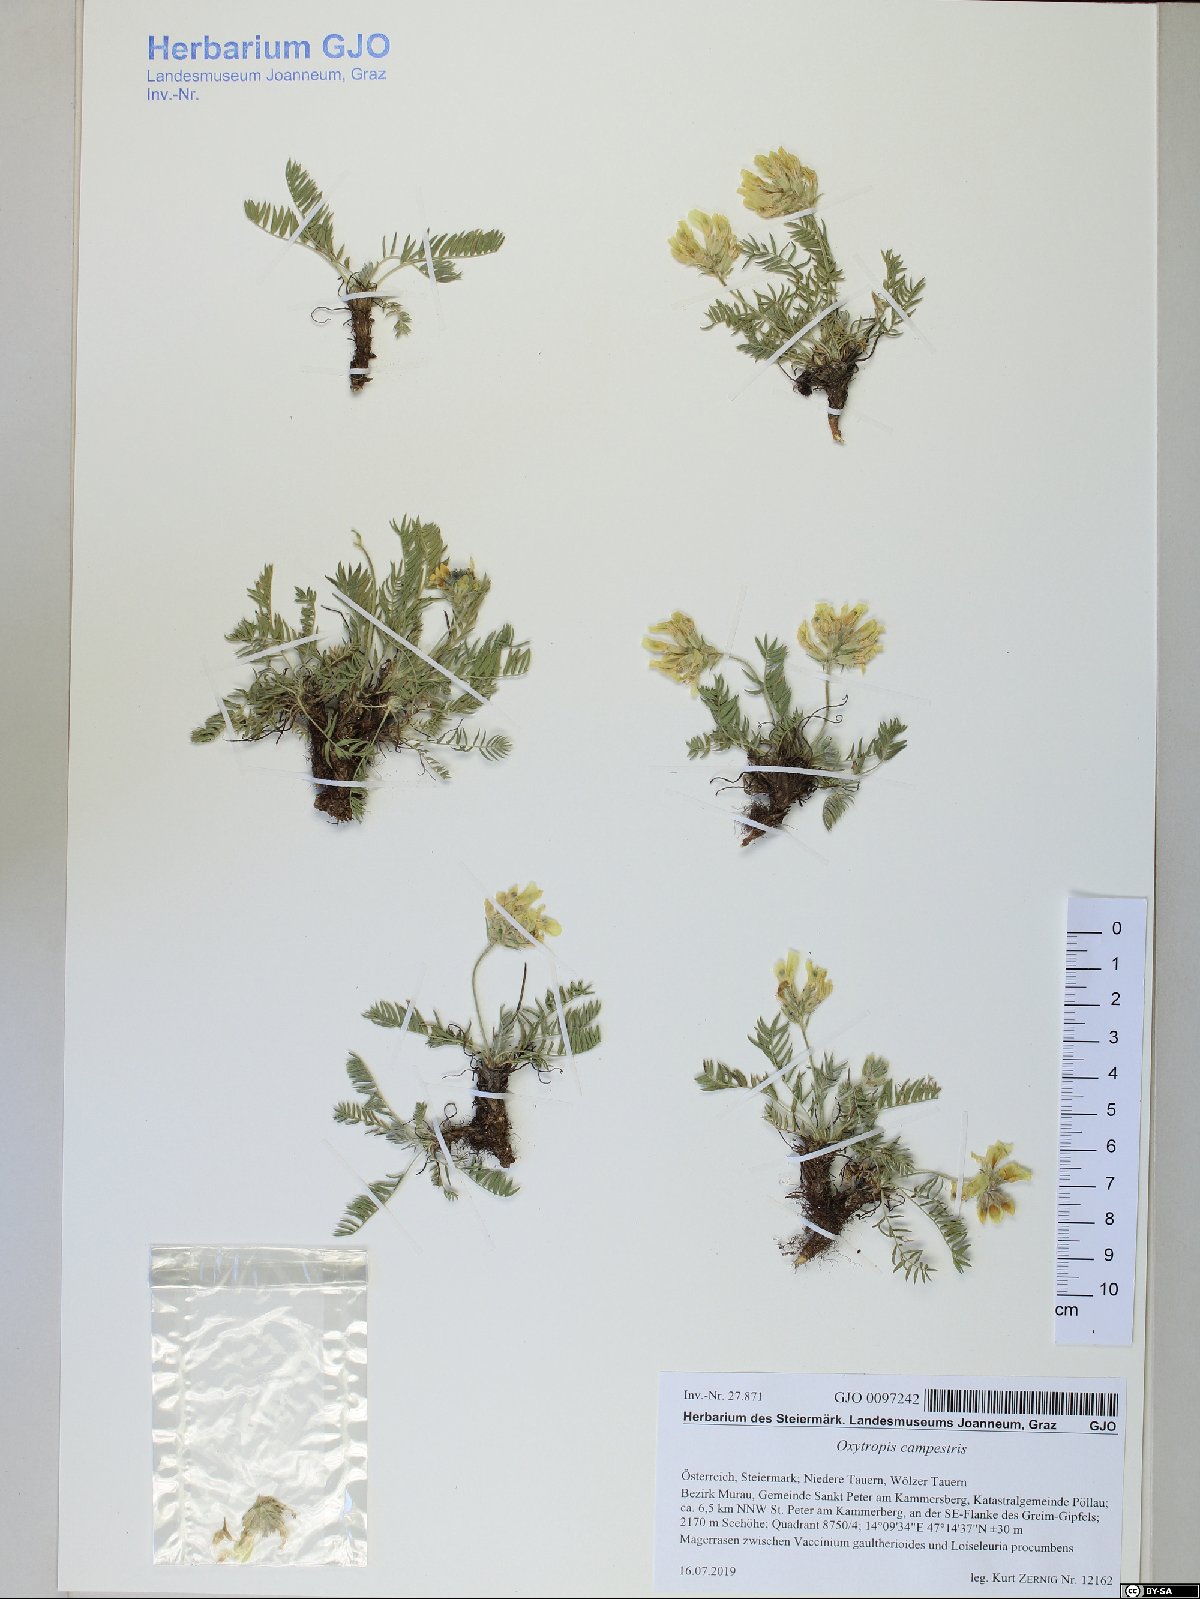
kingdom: Plantae
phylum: Tracheophyta
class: Magnoliopsida
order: Fabales
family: Fabaceae
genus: Oxytropis
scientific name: Oxytropis campestris
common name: Field locoweed
